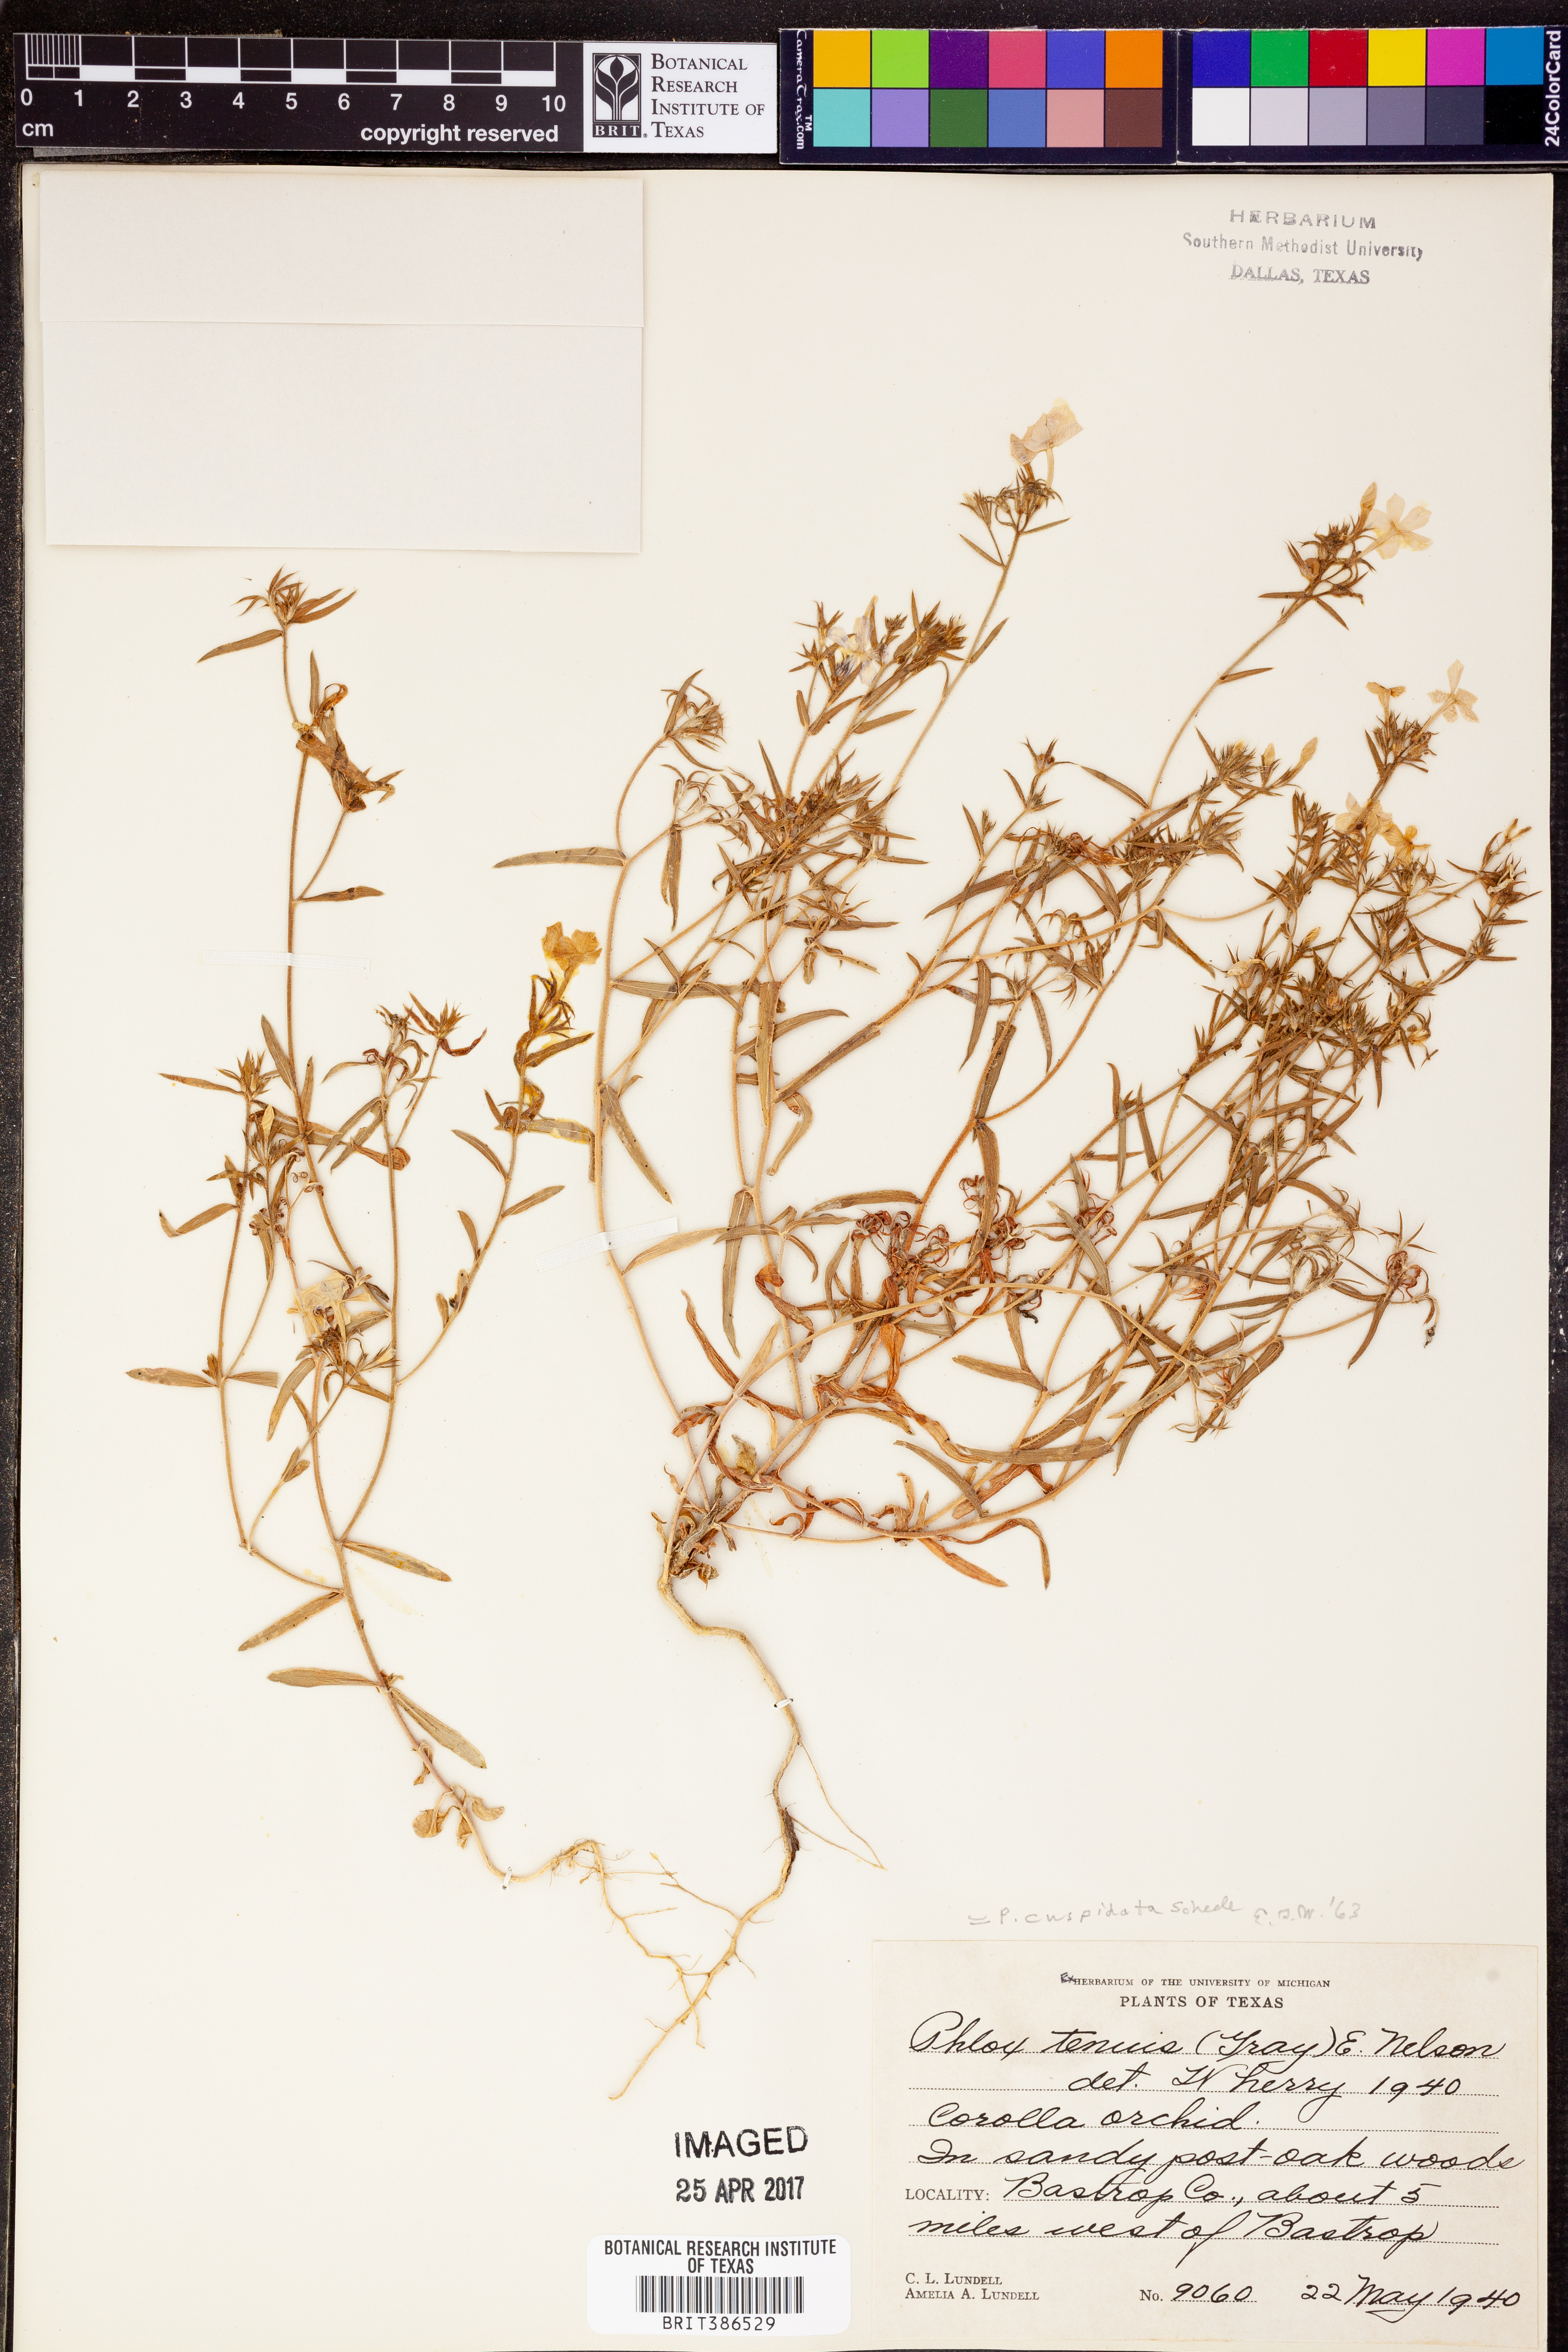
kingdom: Plantae
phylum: Tracheophyta
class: Magnoliopsida
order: Ericales
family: Polemoniaceae
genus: Phlox
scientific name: Phlox longifolia
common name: Longleaf phlox
